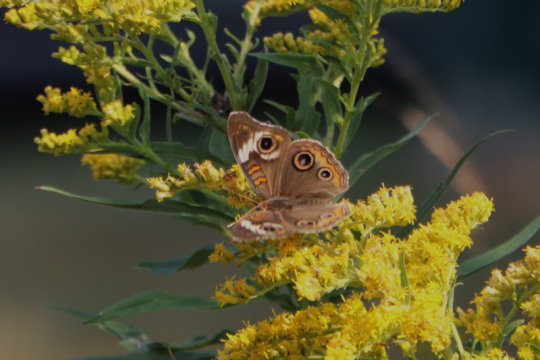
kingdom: Animalia
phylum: Arthropoda
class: Insecta
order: Lepidoptera
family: Nymphalidae
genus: Junonia
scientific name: Junonia coenia
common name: Common Buckeye
